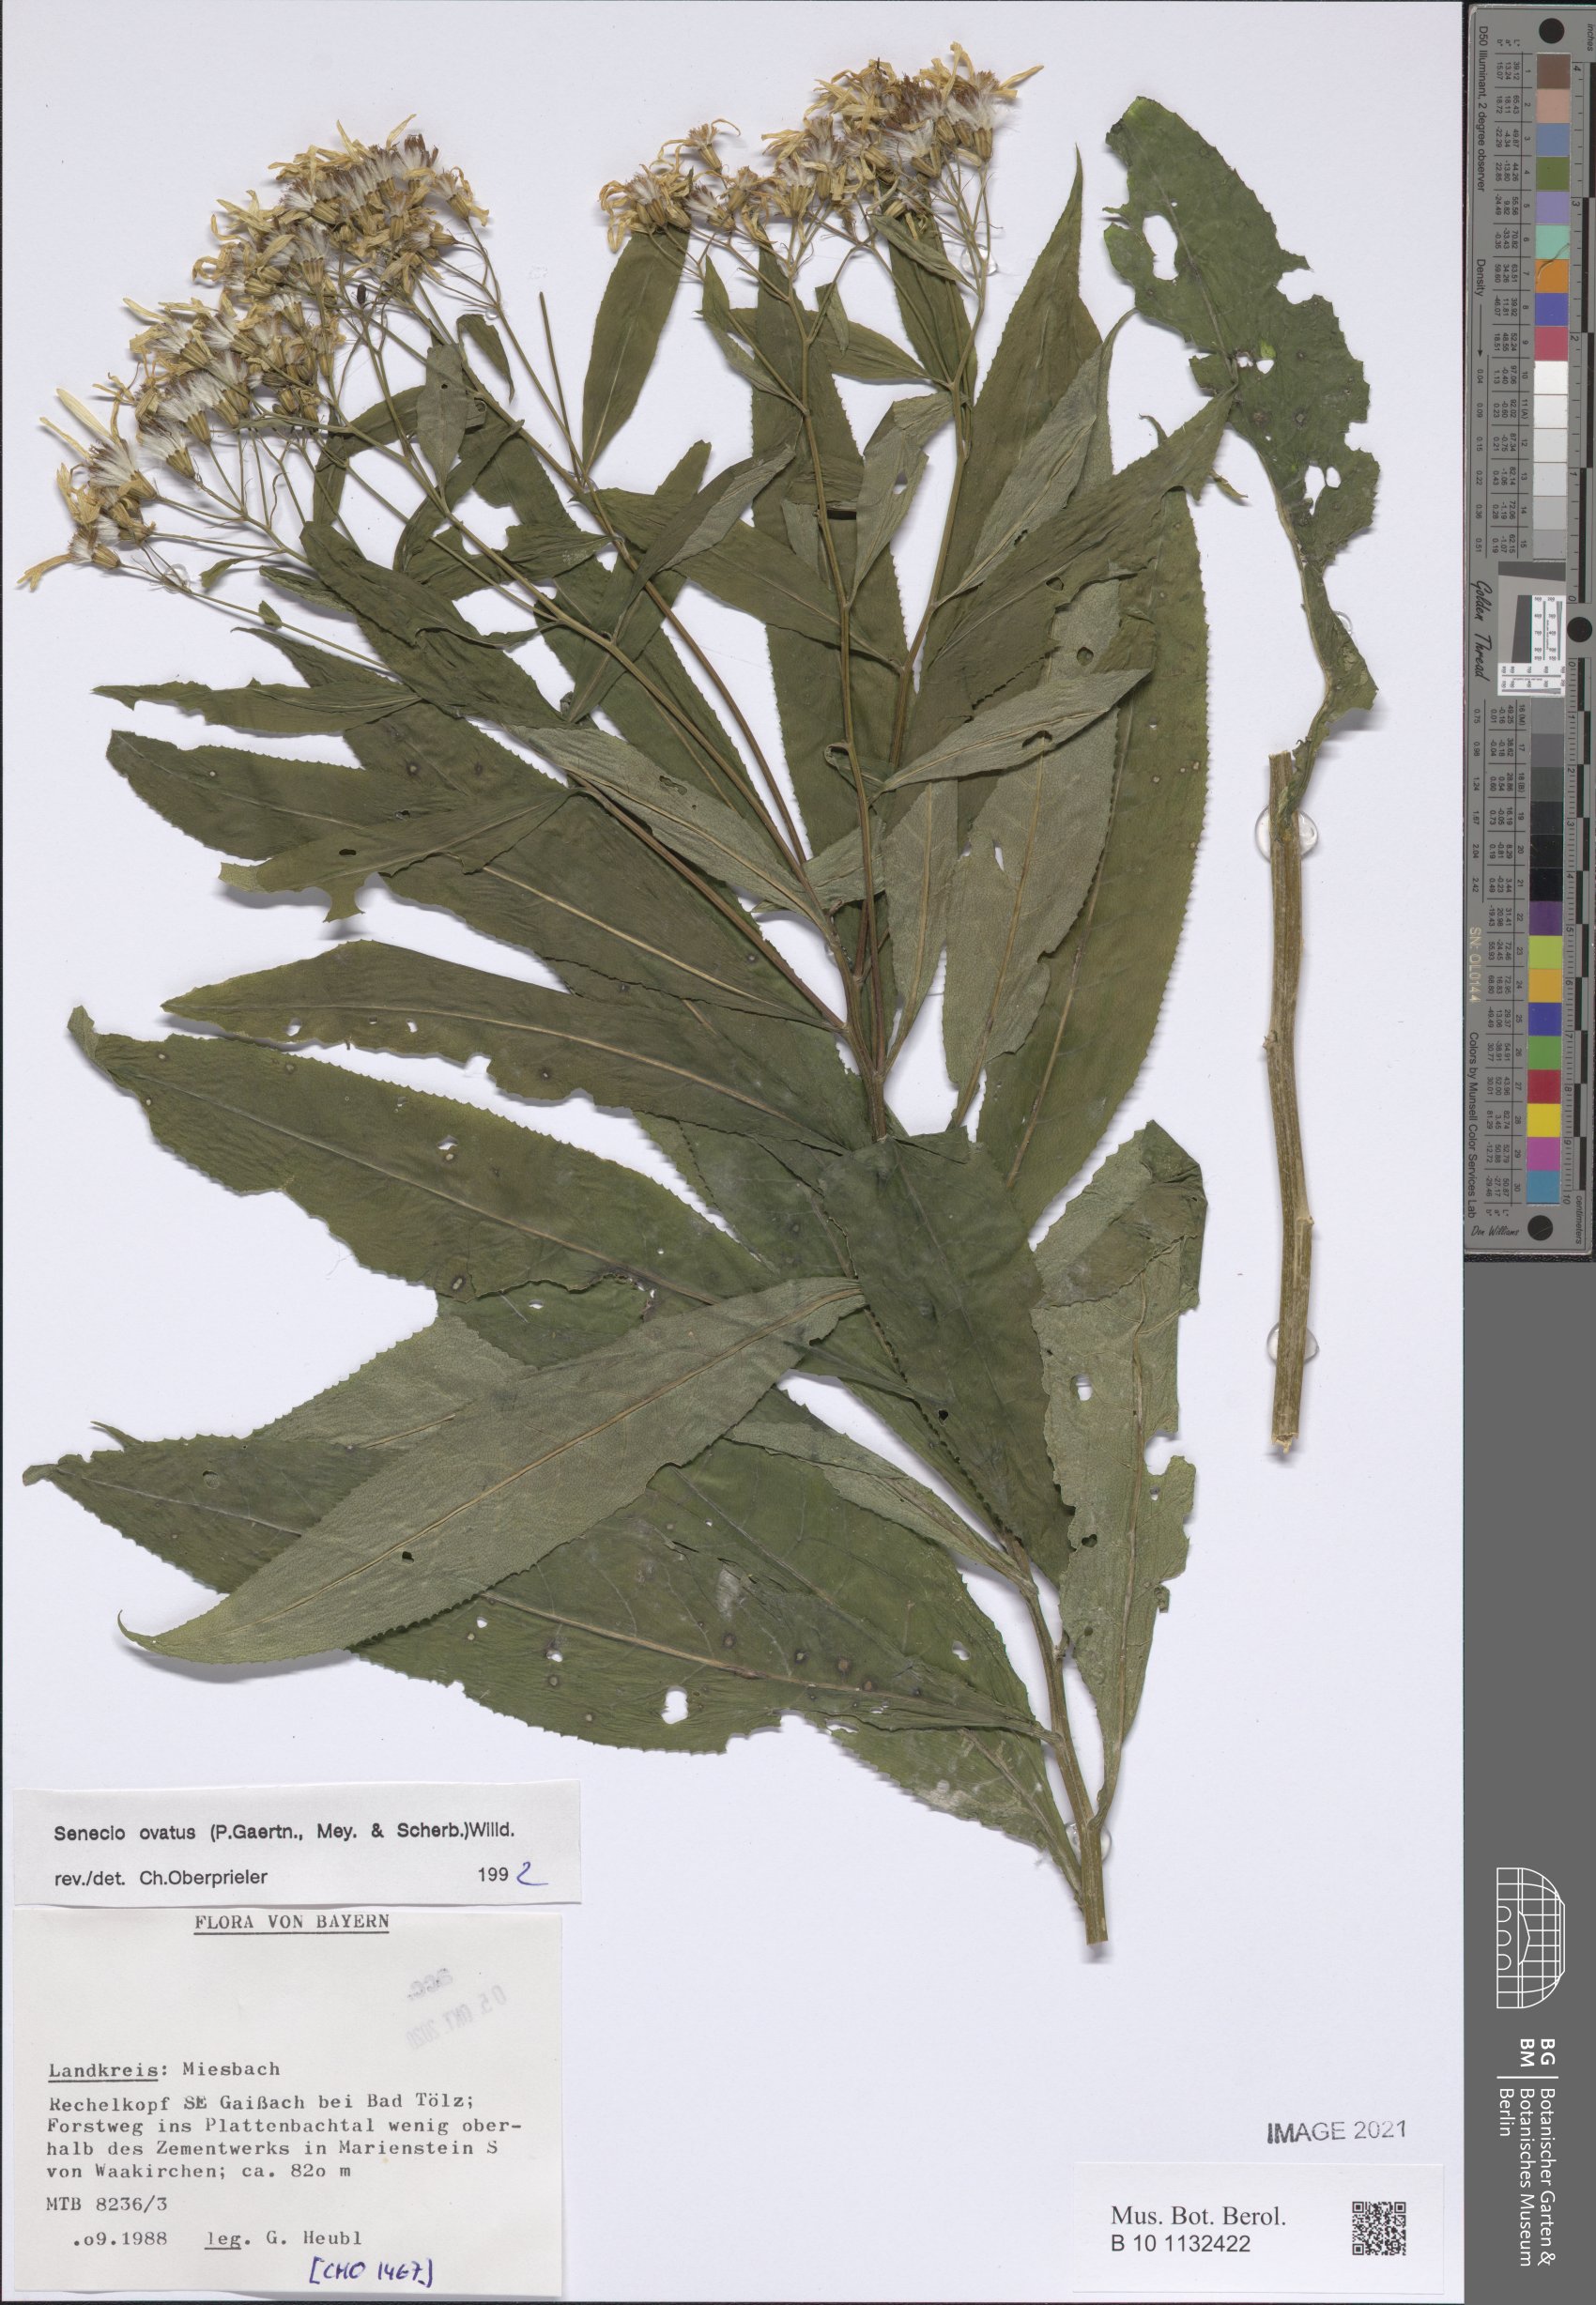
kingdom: Plantae
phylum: Tracheophyta
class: Magnoliopsida
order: Asterales
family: Asteraceae
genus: Senecio
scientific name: Senecio ovatus
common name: Wood ragwort
